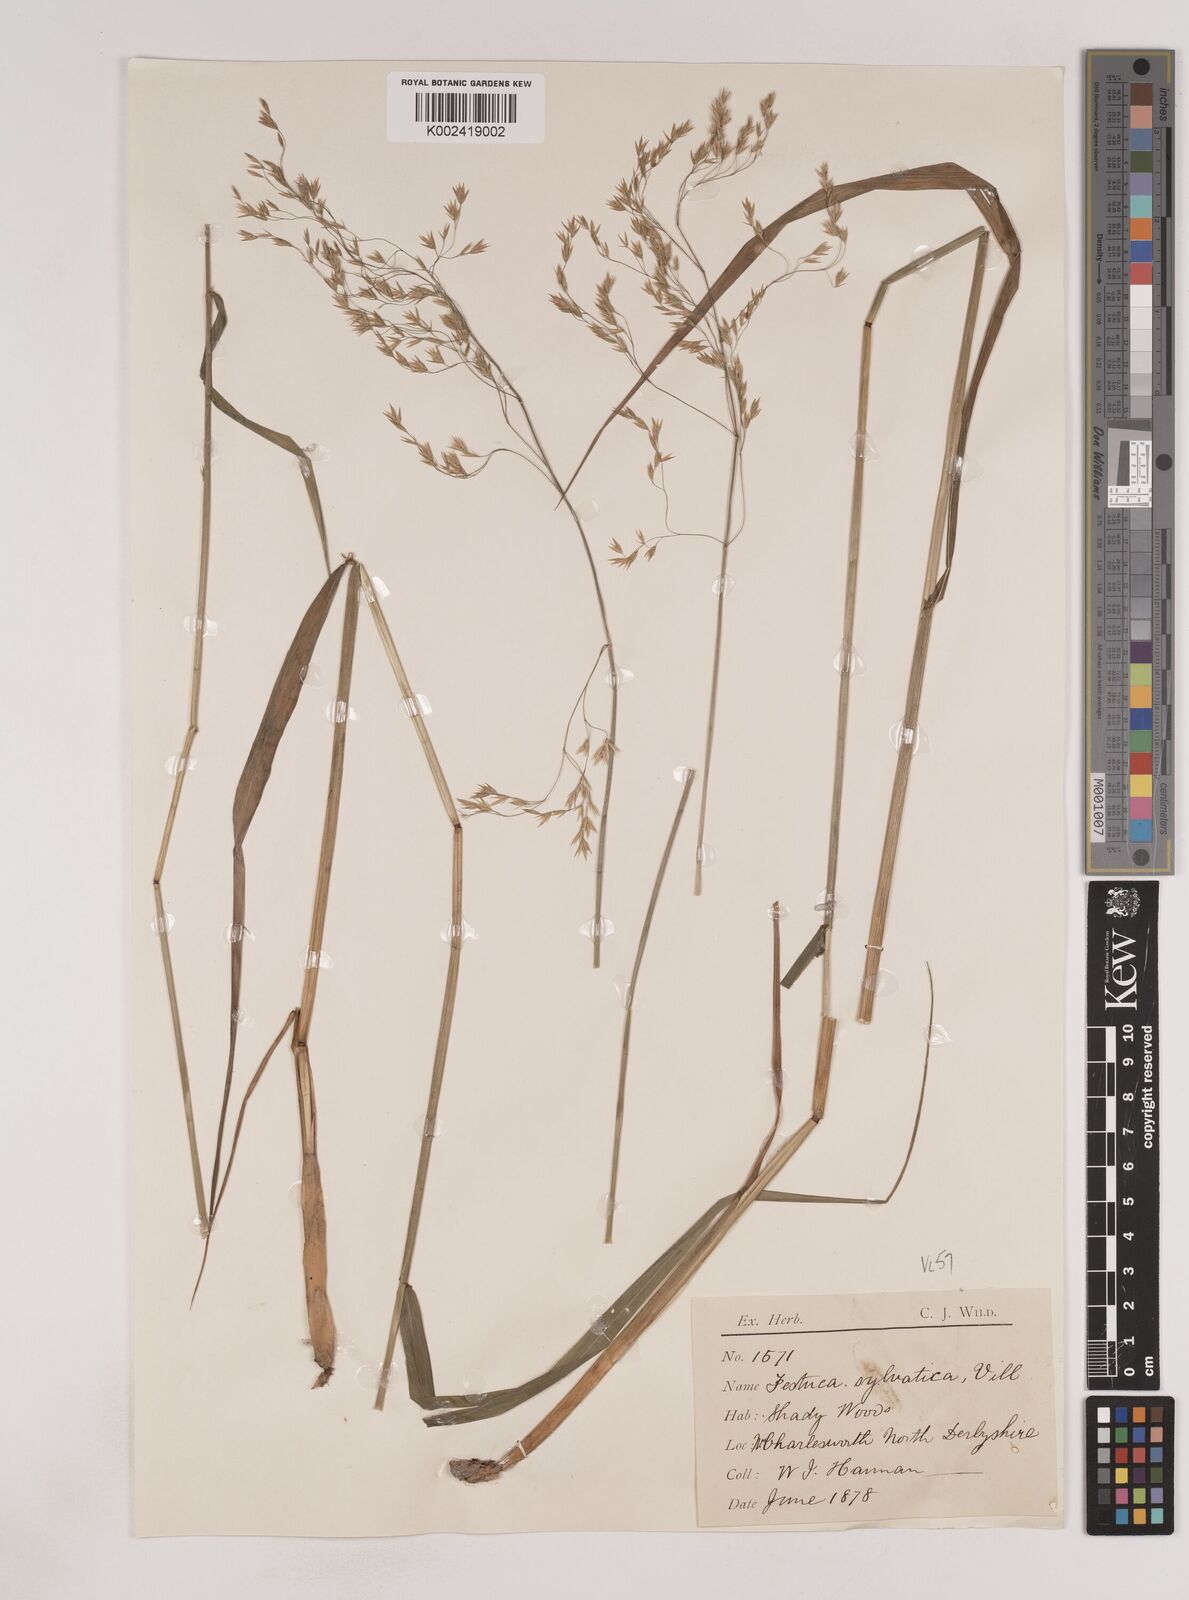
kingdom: Plantae
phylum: Tracheophyta
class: Liliopsida
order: Poales
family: Poaceae
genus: Festuca
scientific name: Festuca drymeja
